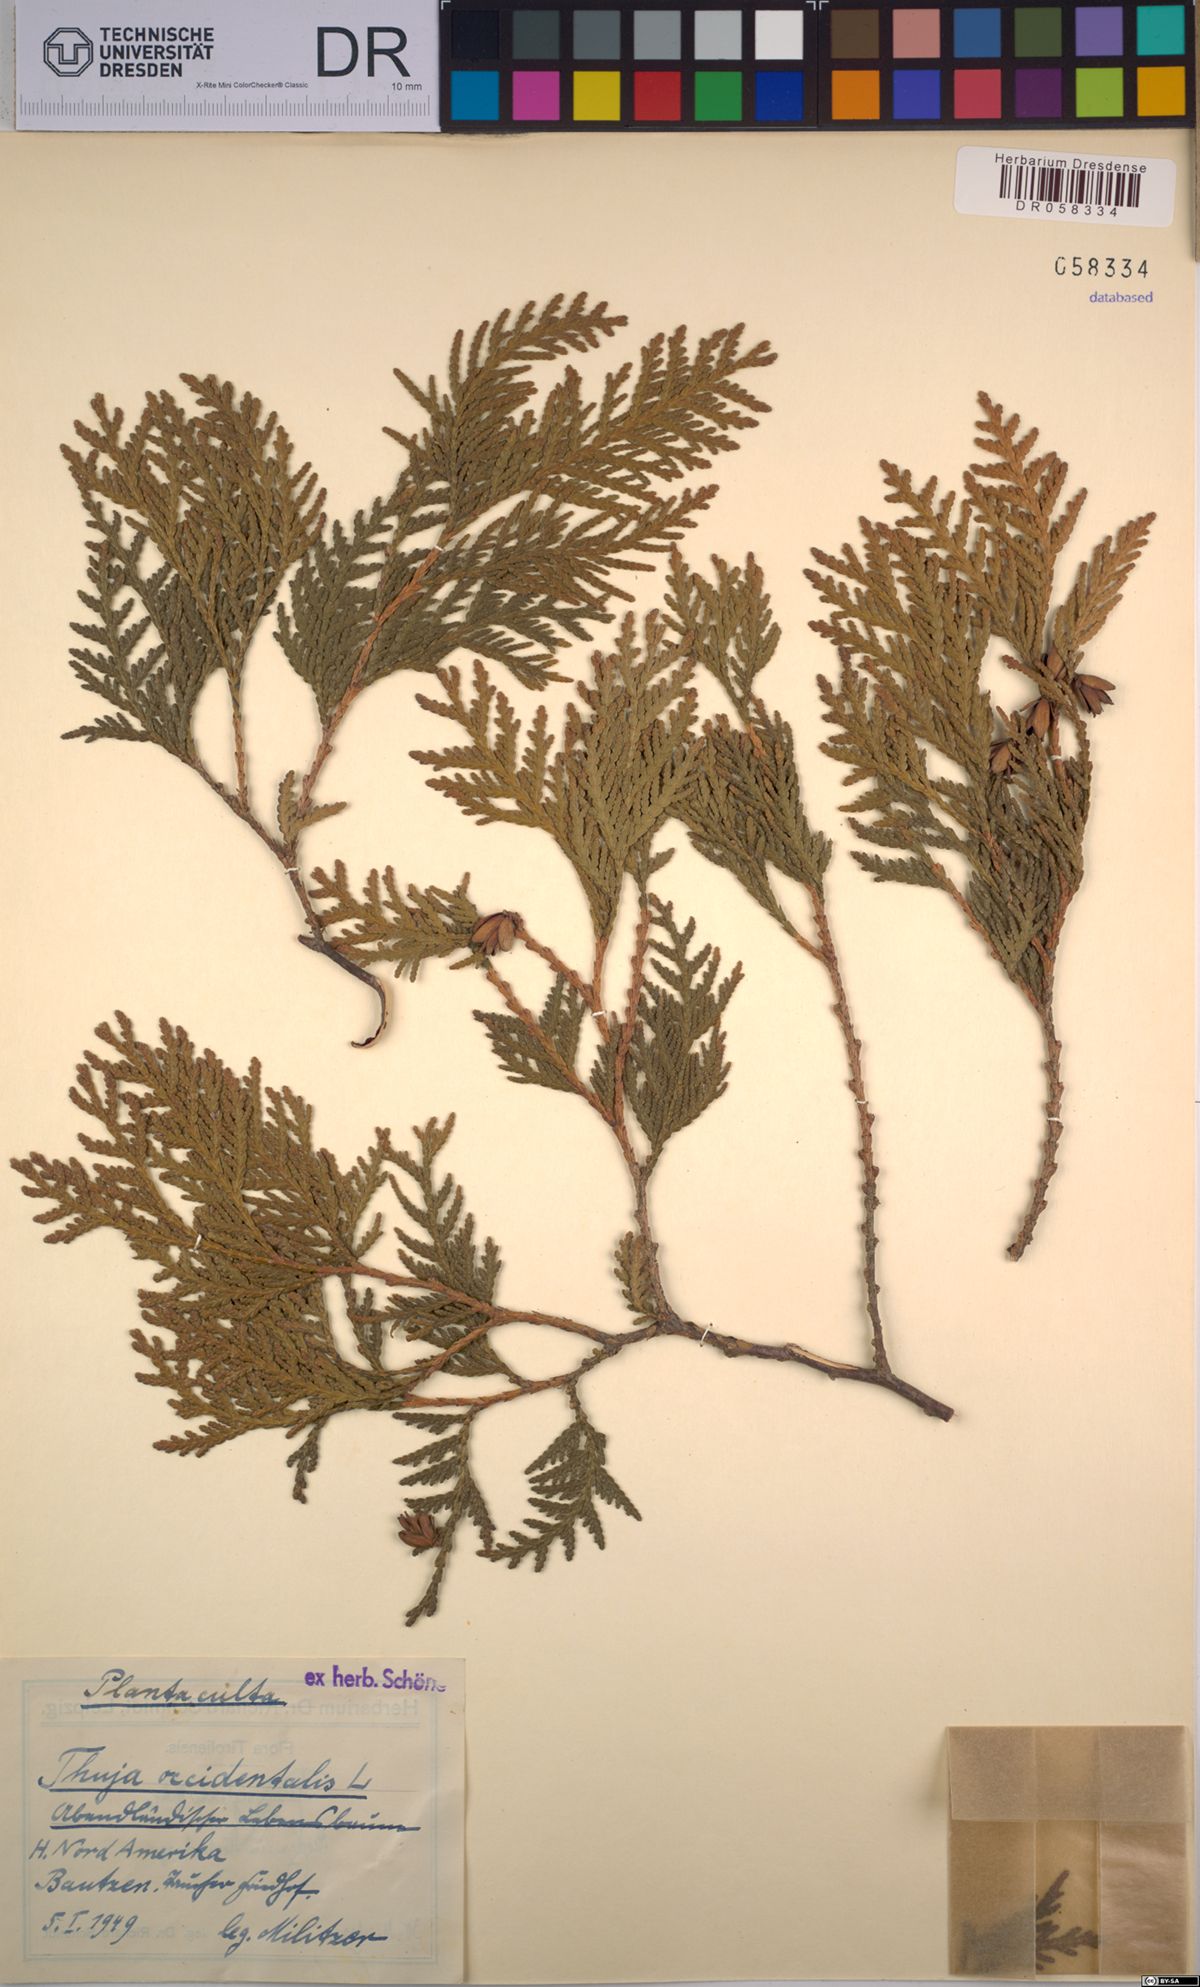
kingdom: Plantae
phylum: Tracheophyta
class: Pinopsida
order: Pinales
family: Cupressaceae
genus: Thuja
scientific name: Thuja occidentalis
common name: Northern white-cedar
